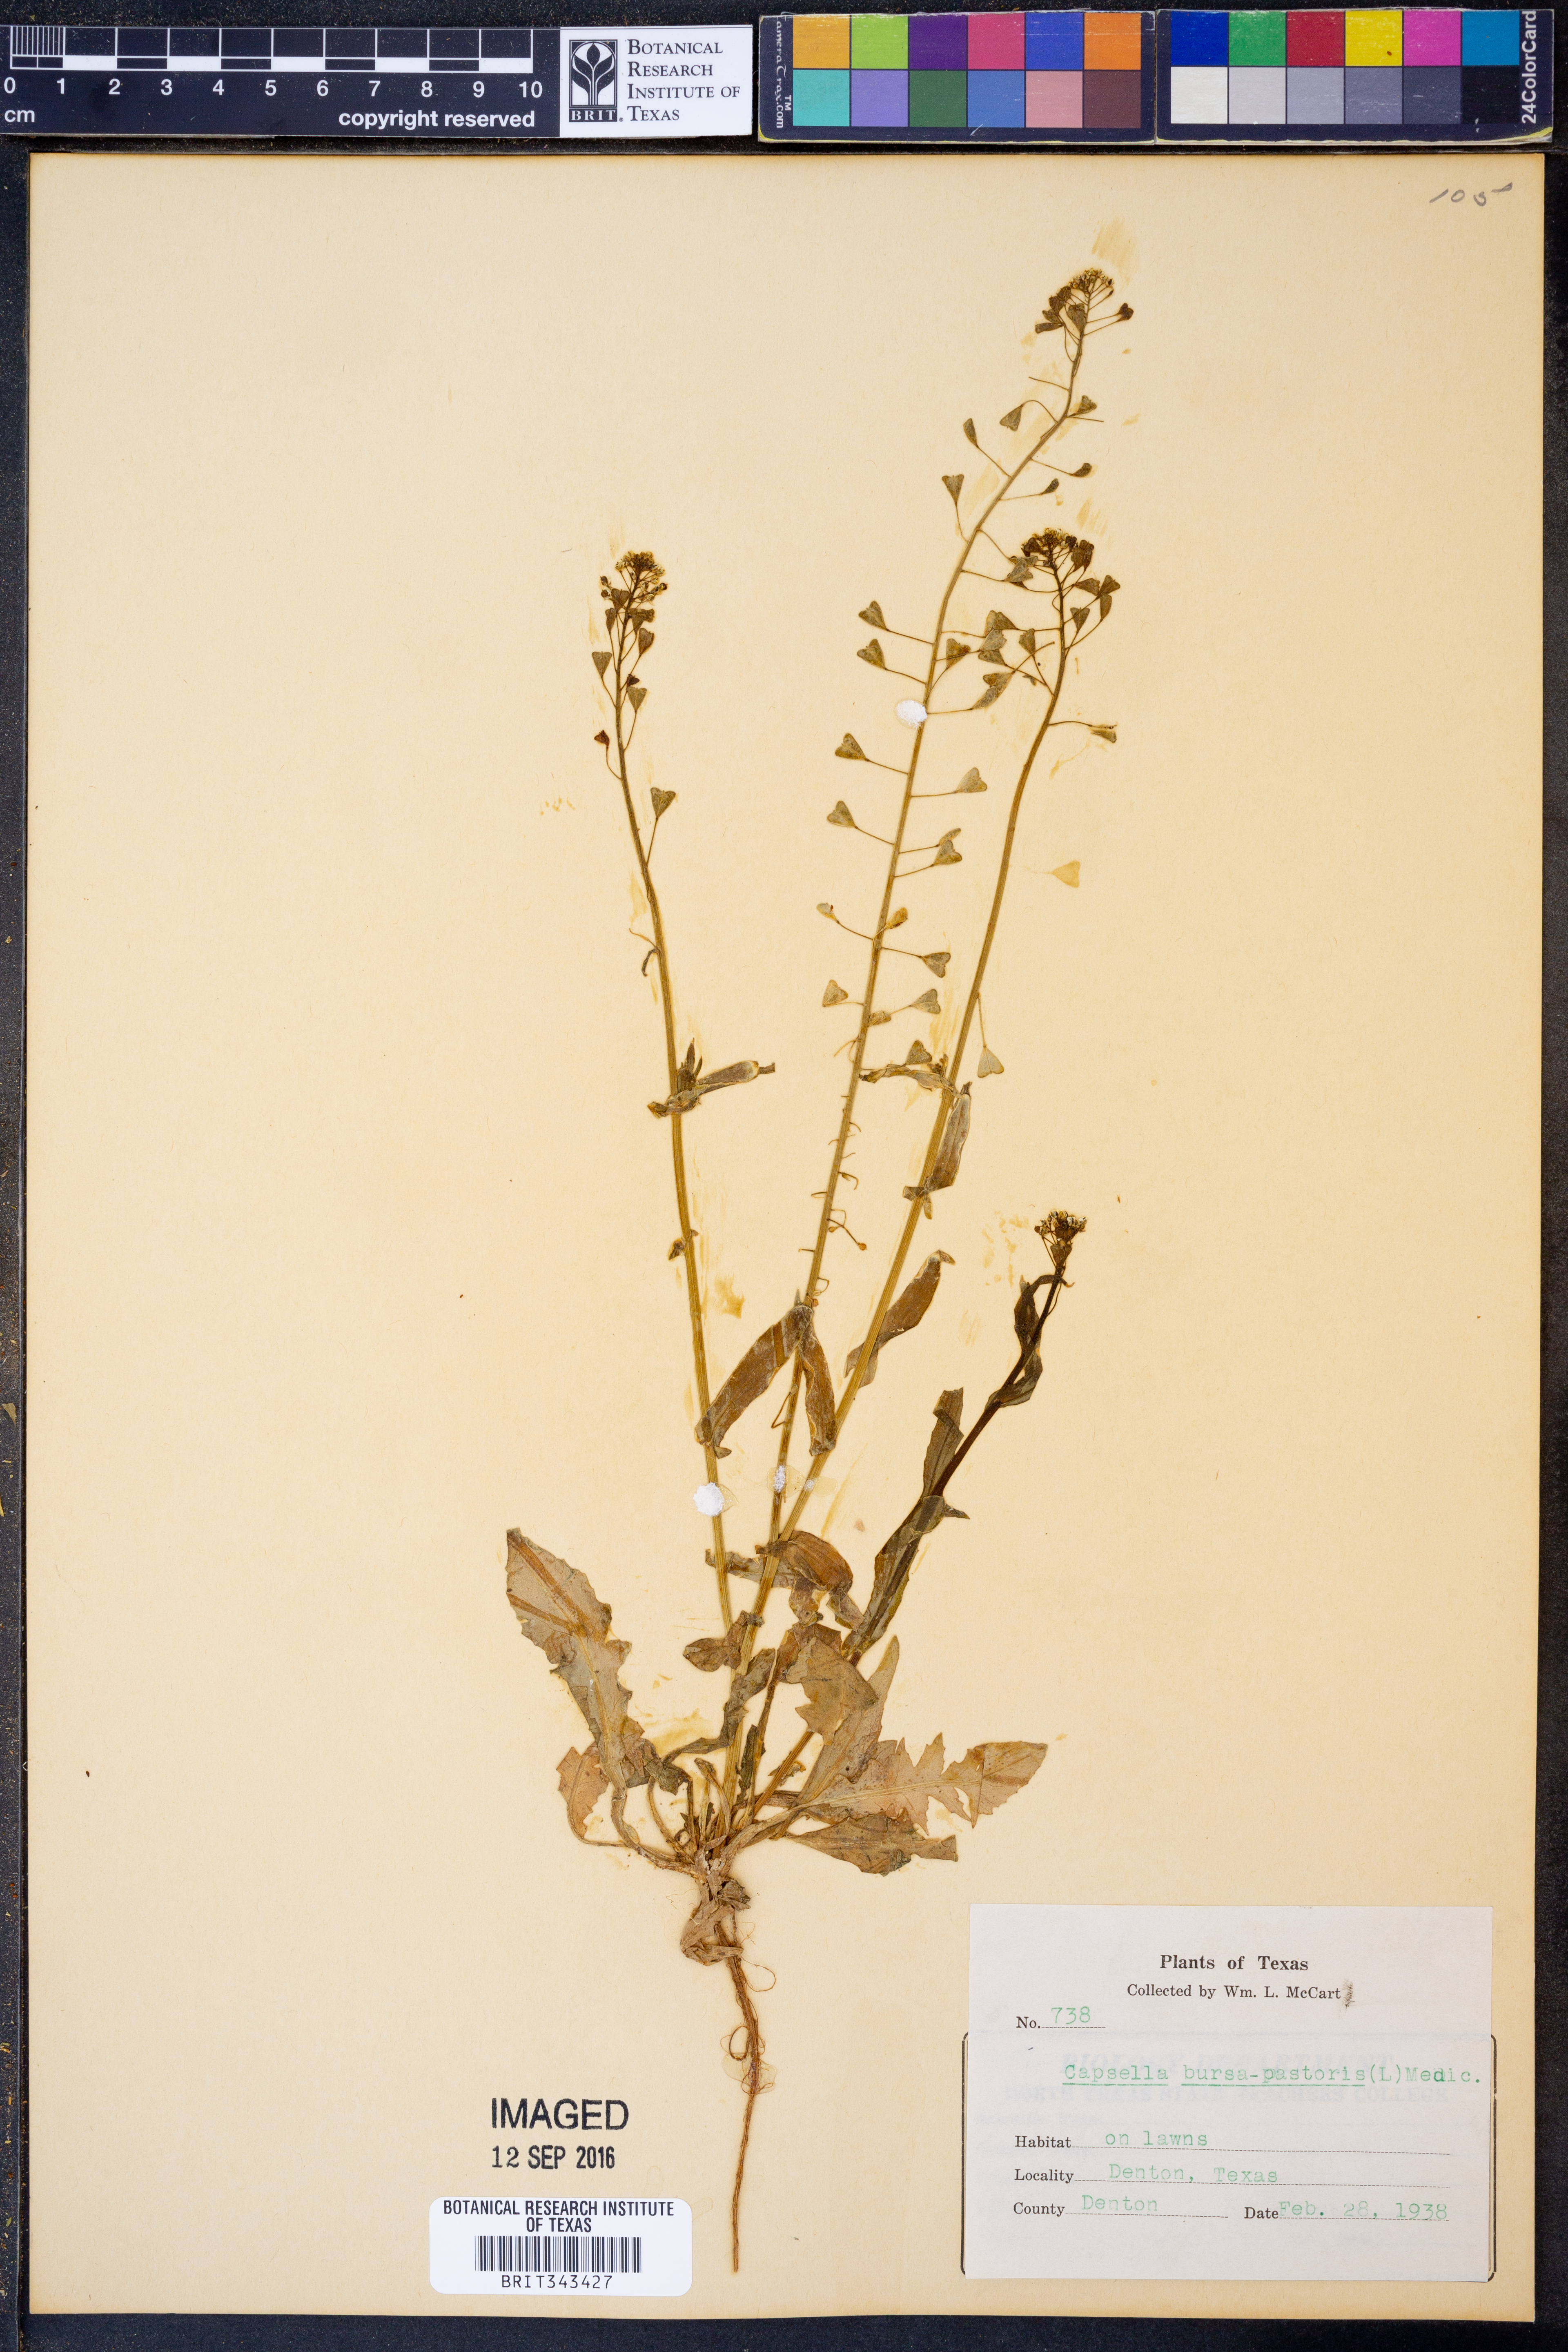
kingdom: Plantae
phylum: Tracheophyta
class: Magnoliopsida
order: Brassicales
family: Brassicaceae
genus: Capsella
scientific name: Capsella bursa-pastoris
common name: Shepherd's purse
